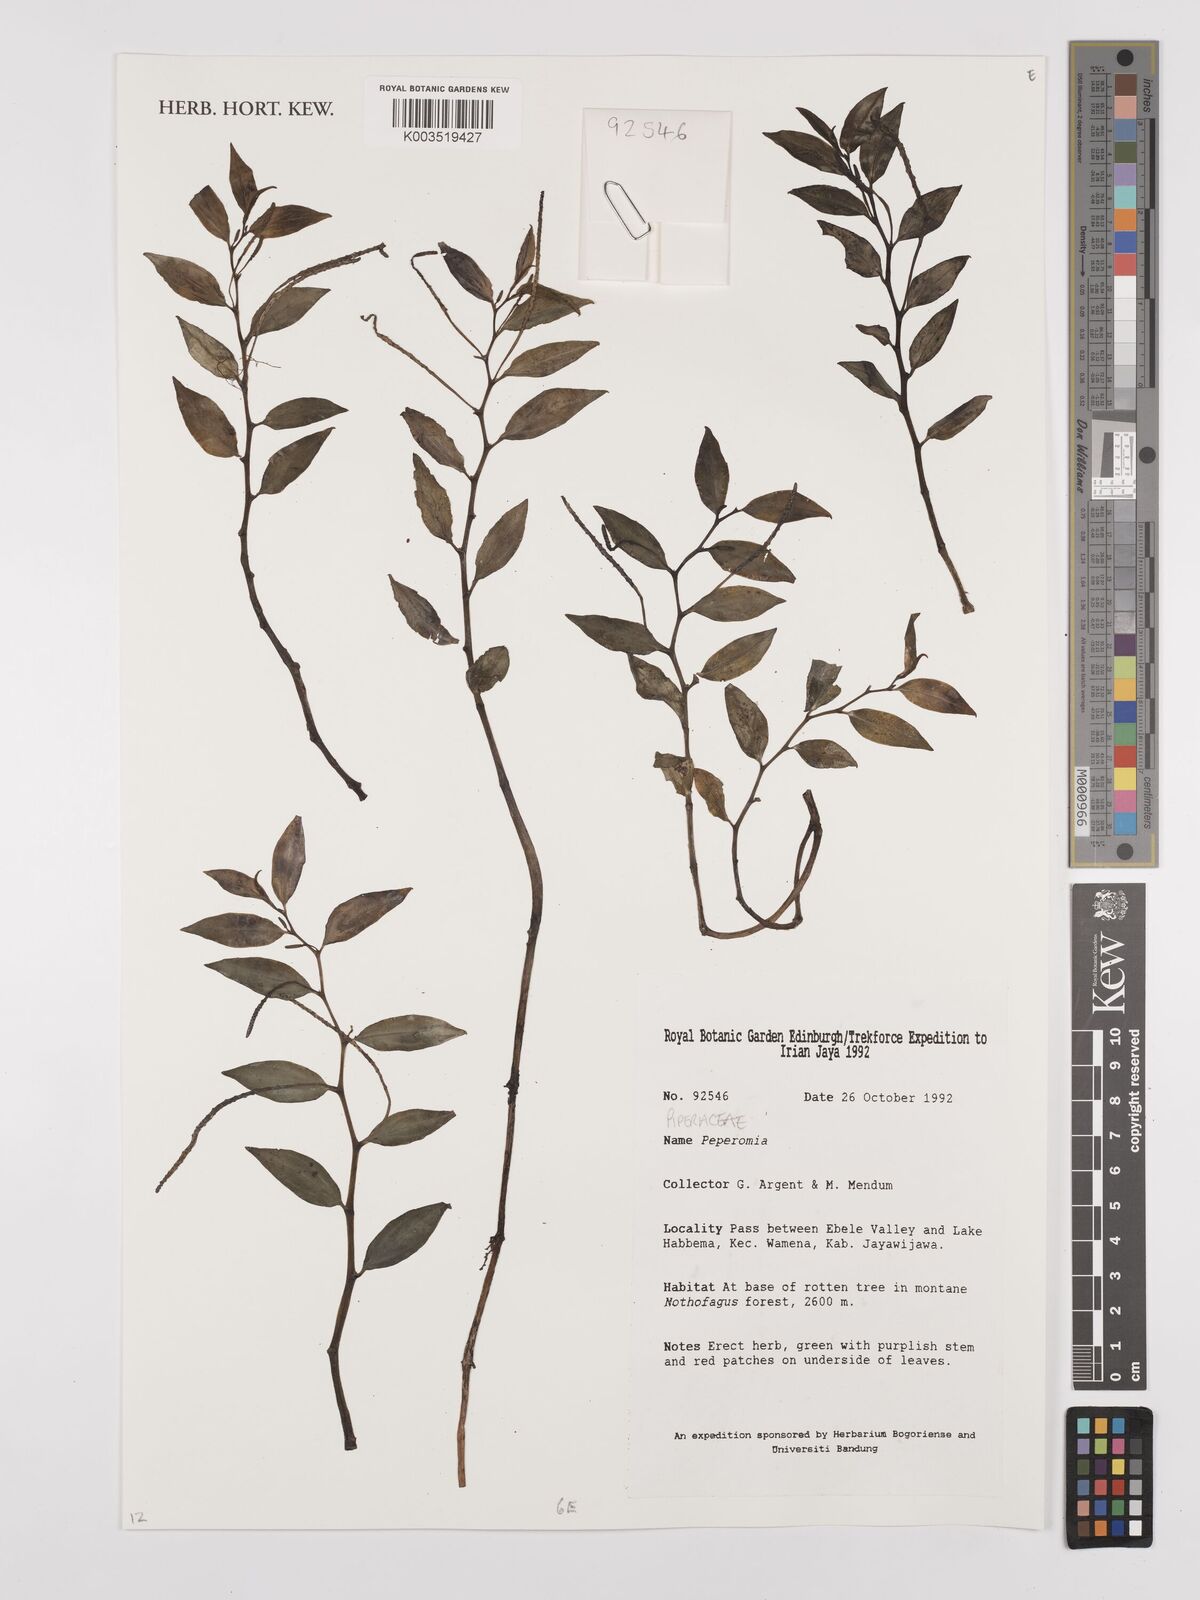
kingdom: Plantae
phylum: Tracheophyta
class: Magnoliopsida
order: Piperales
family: Piperaceae
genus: Peperomia
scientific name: Peperomia
